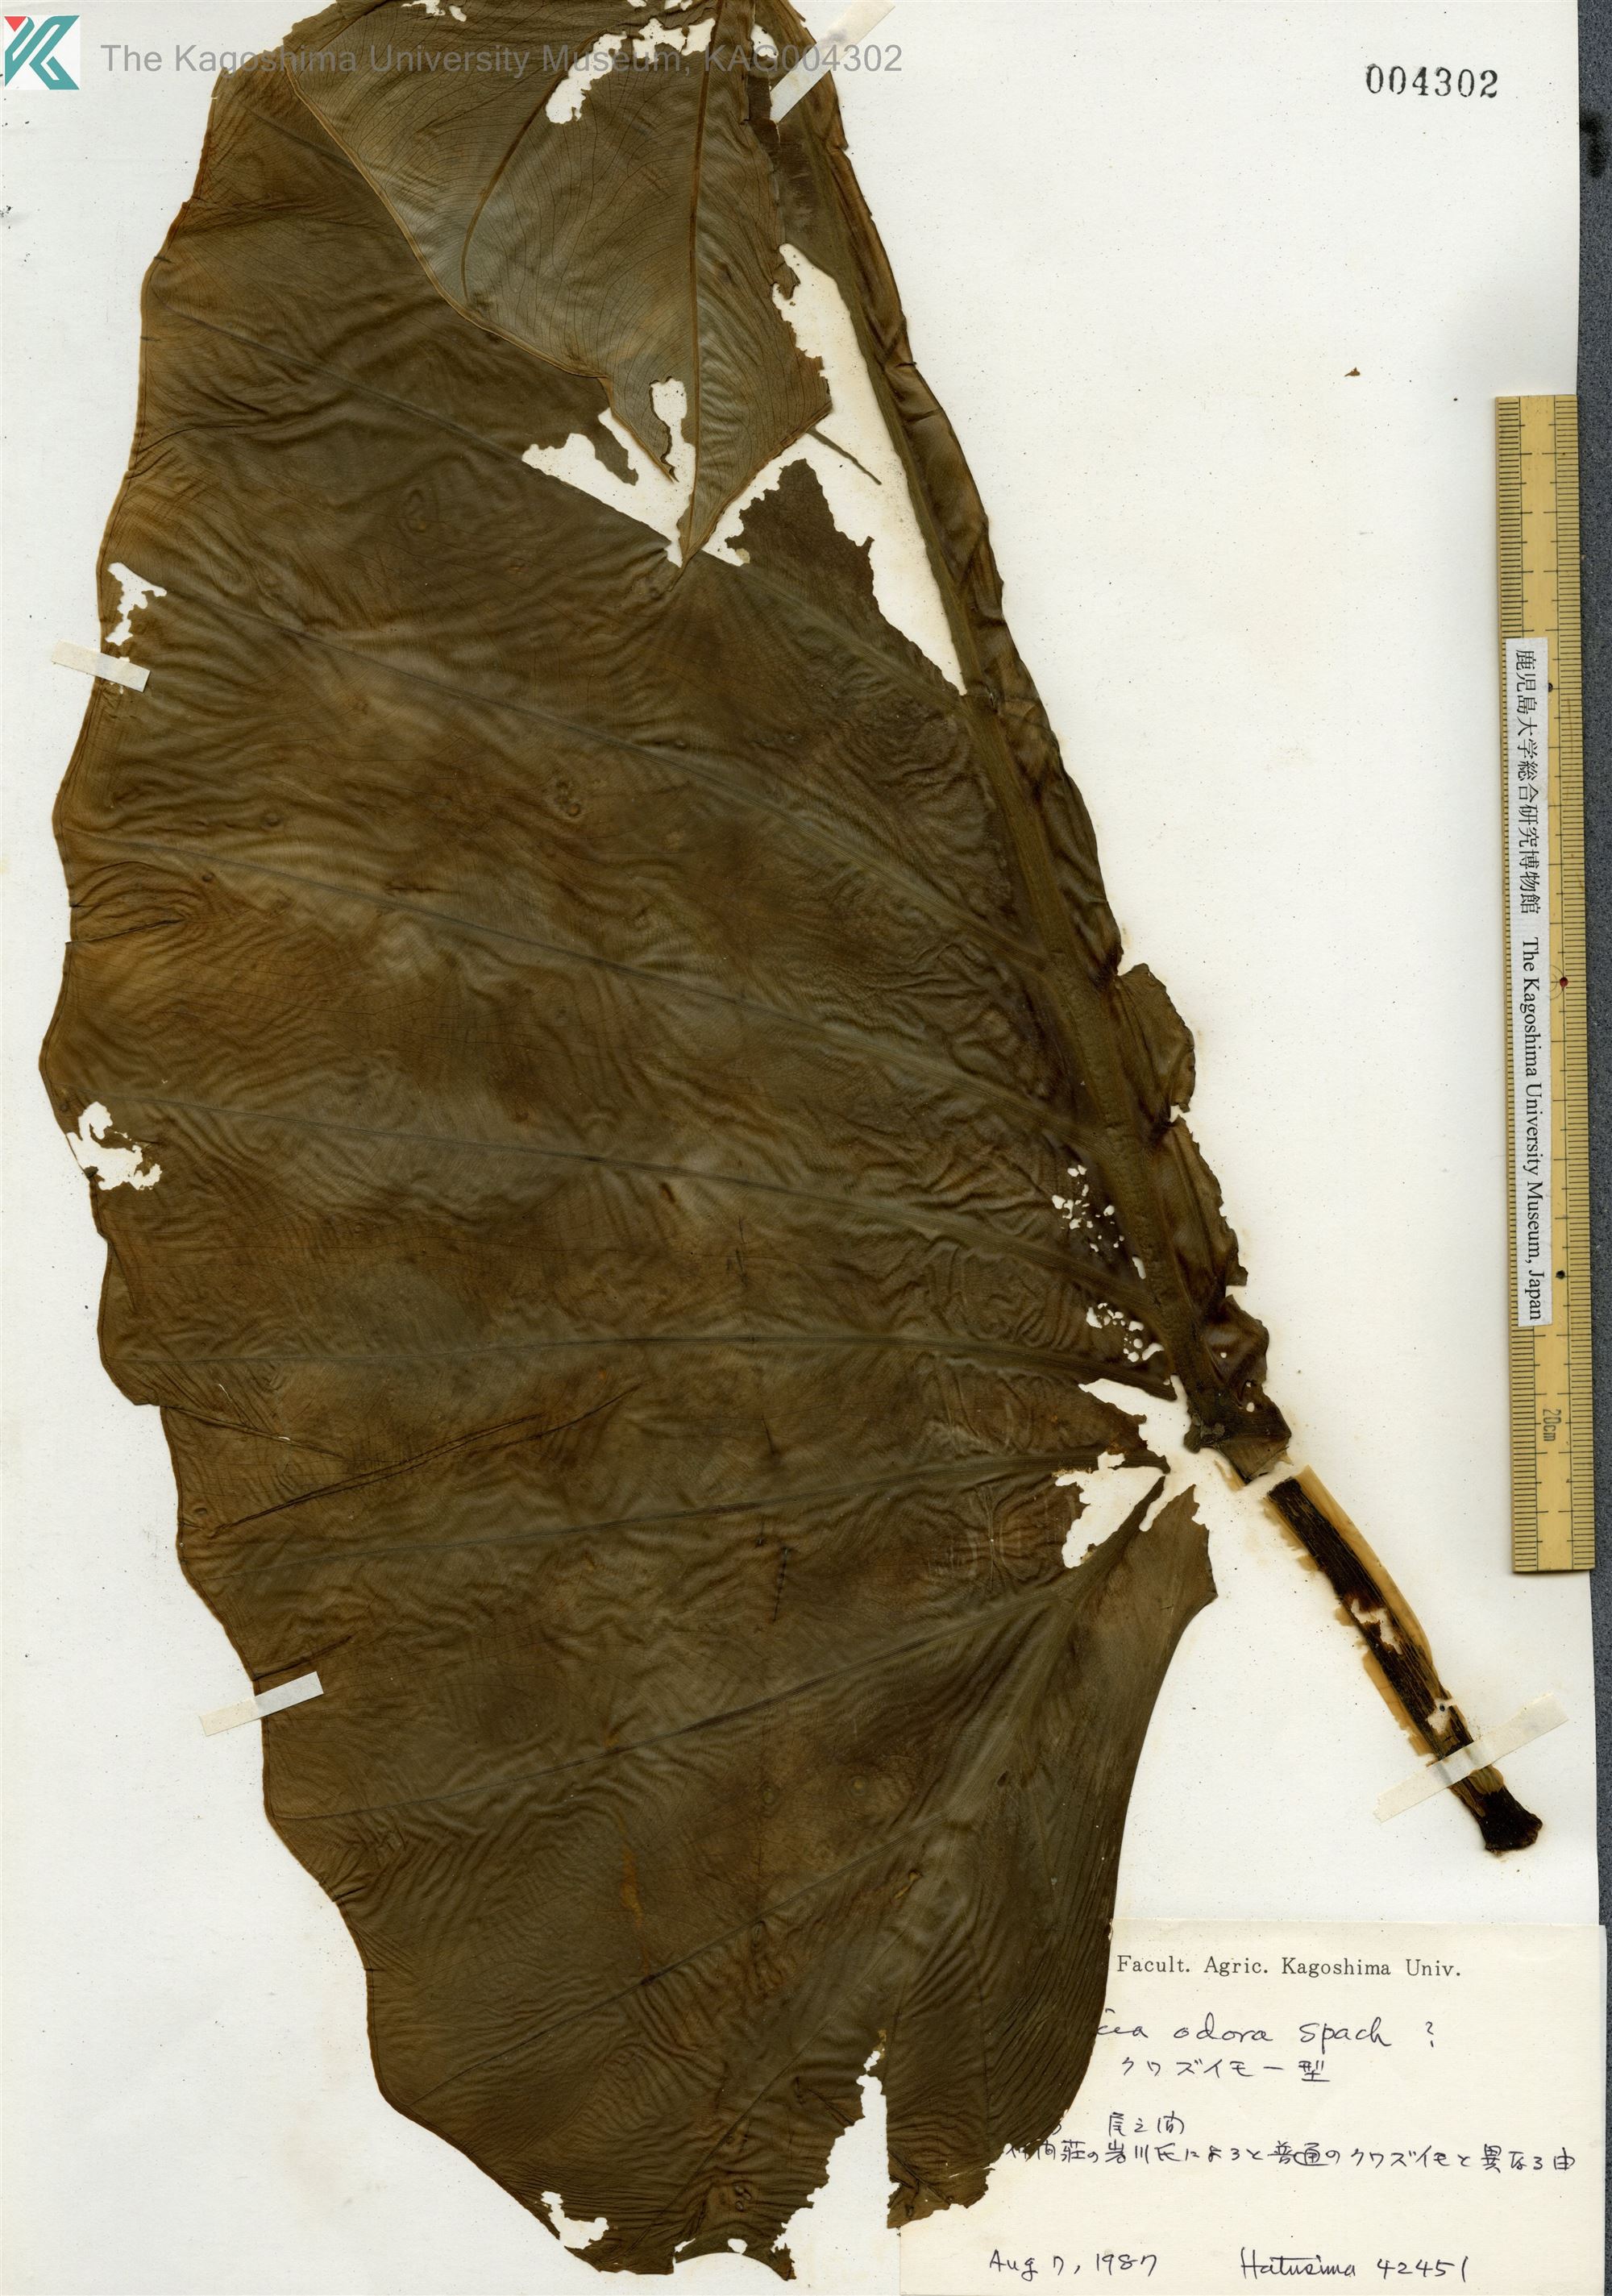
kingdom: Plantae
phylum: Tracheophyta
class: Liliopsida
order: Alismatales
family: Araceae
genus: Alocasia
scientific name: Alocasia odora
